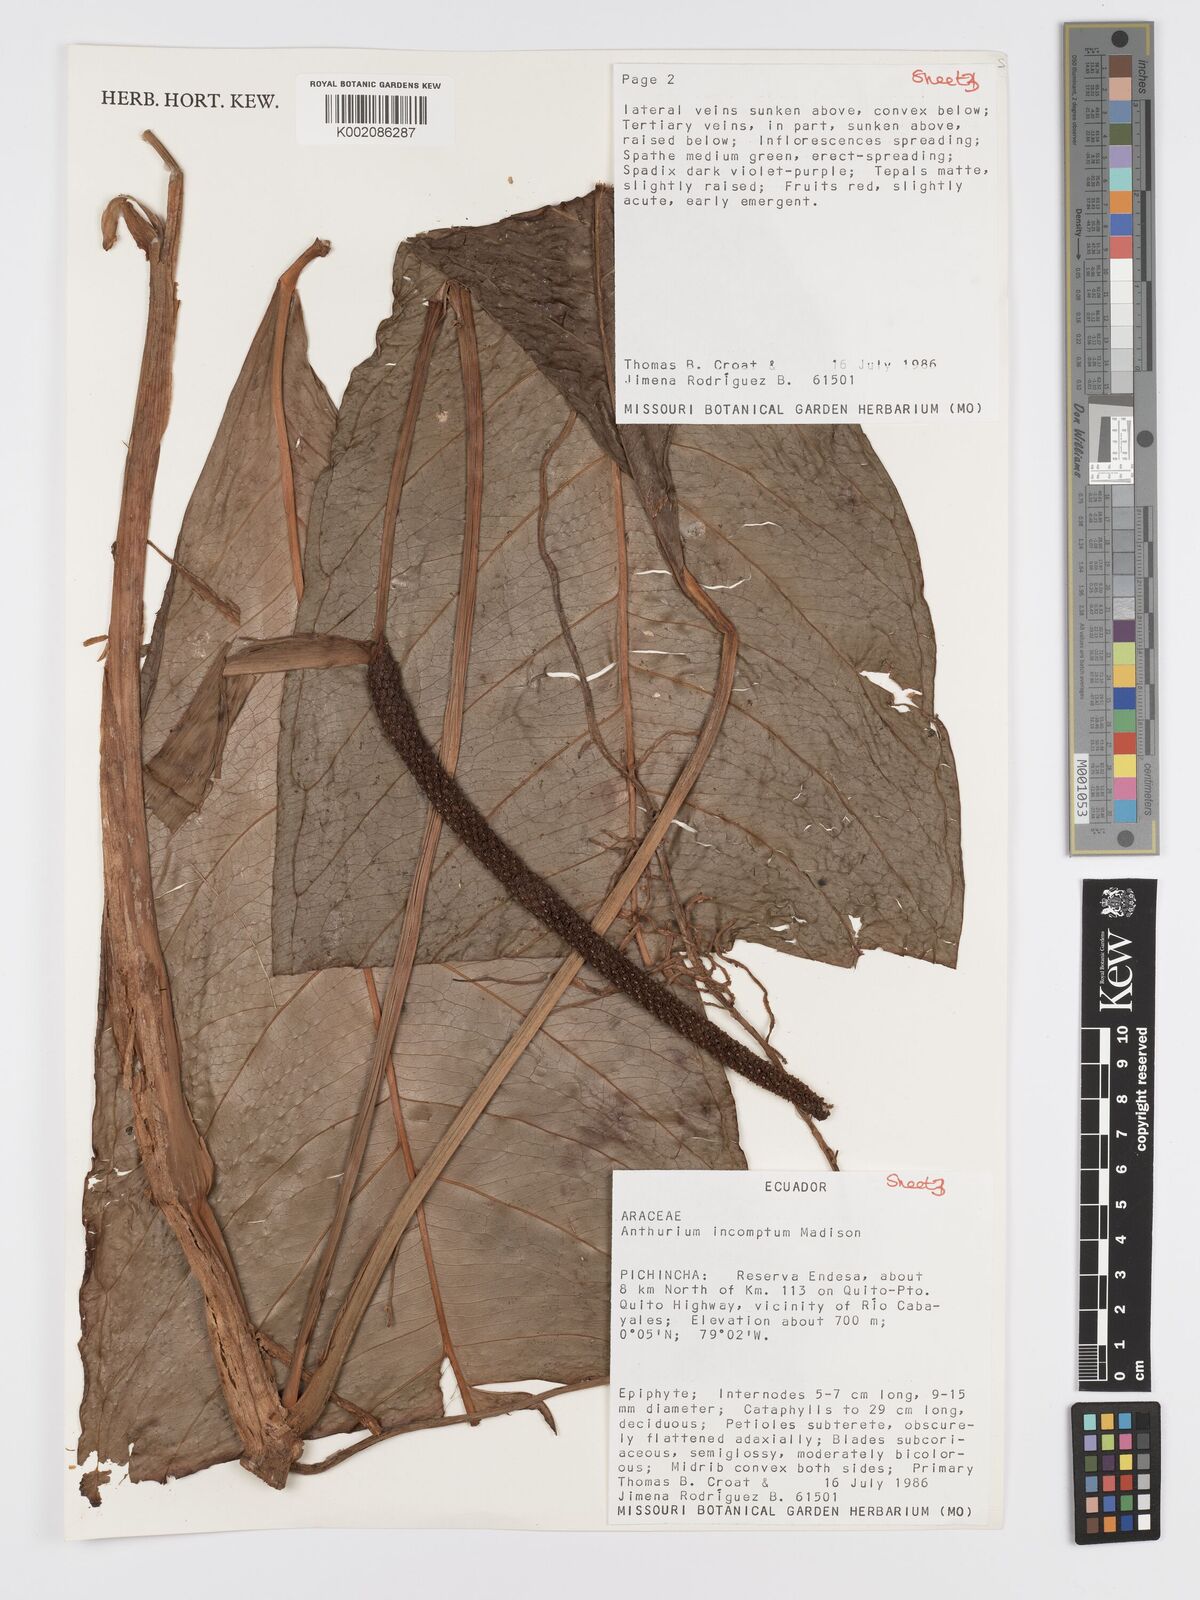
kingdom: Plantae
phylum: Tracheophyta
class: Liliopsida
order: Alismatales
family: Araceae
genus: Anthurium
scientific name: Anthurium incomptum
